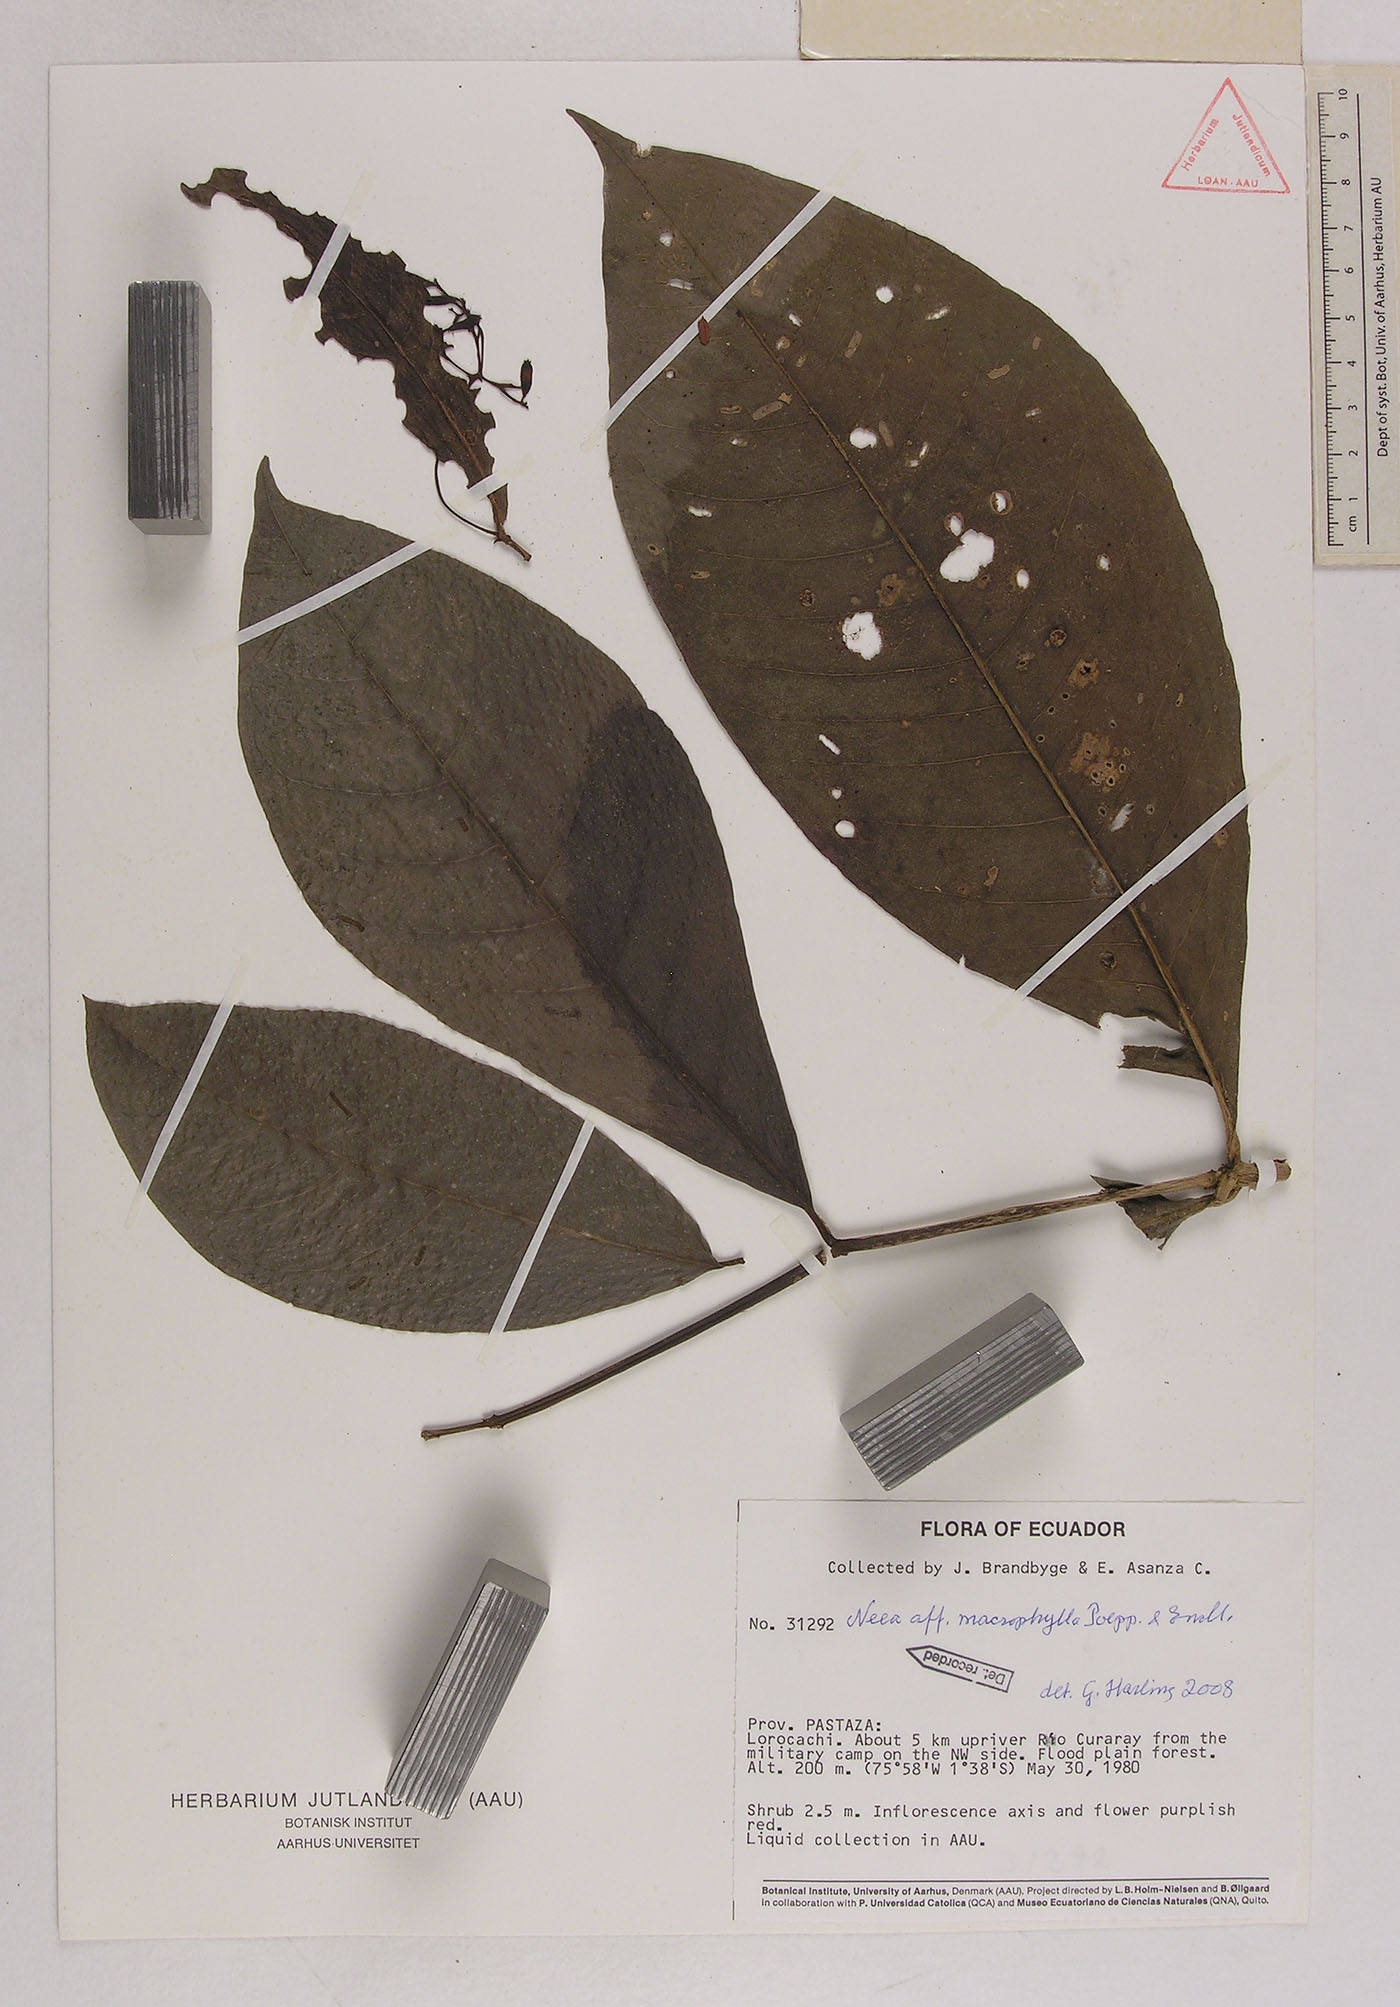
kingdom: Plantae
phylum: Tracheophyta
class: Magnoliopsida
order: Caryophyllales
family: Nyctaginaceae
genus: Neea
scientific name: Neea macrophylla
